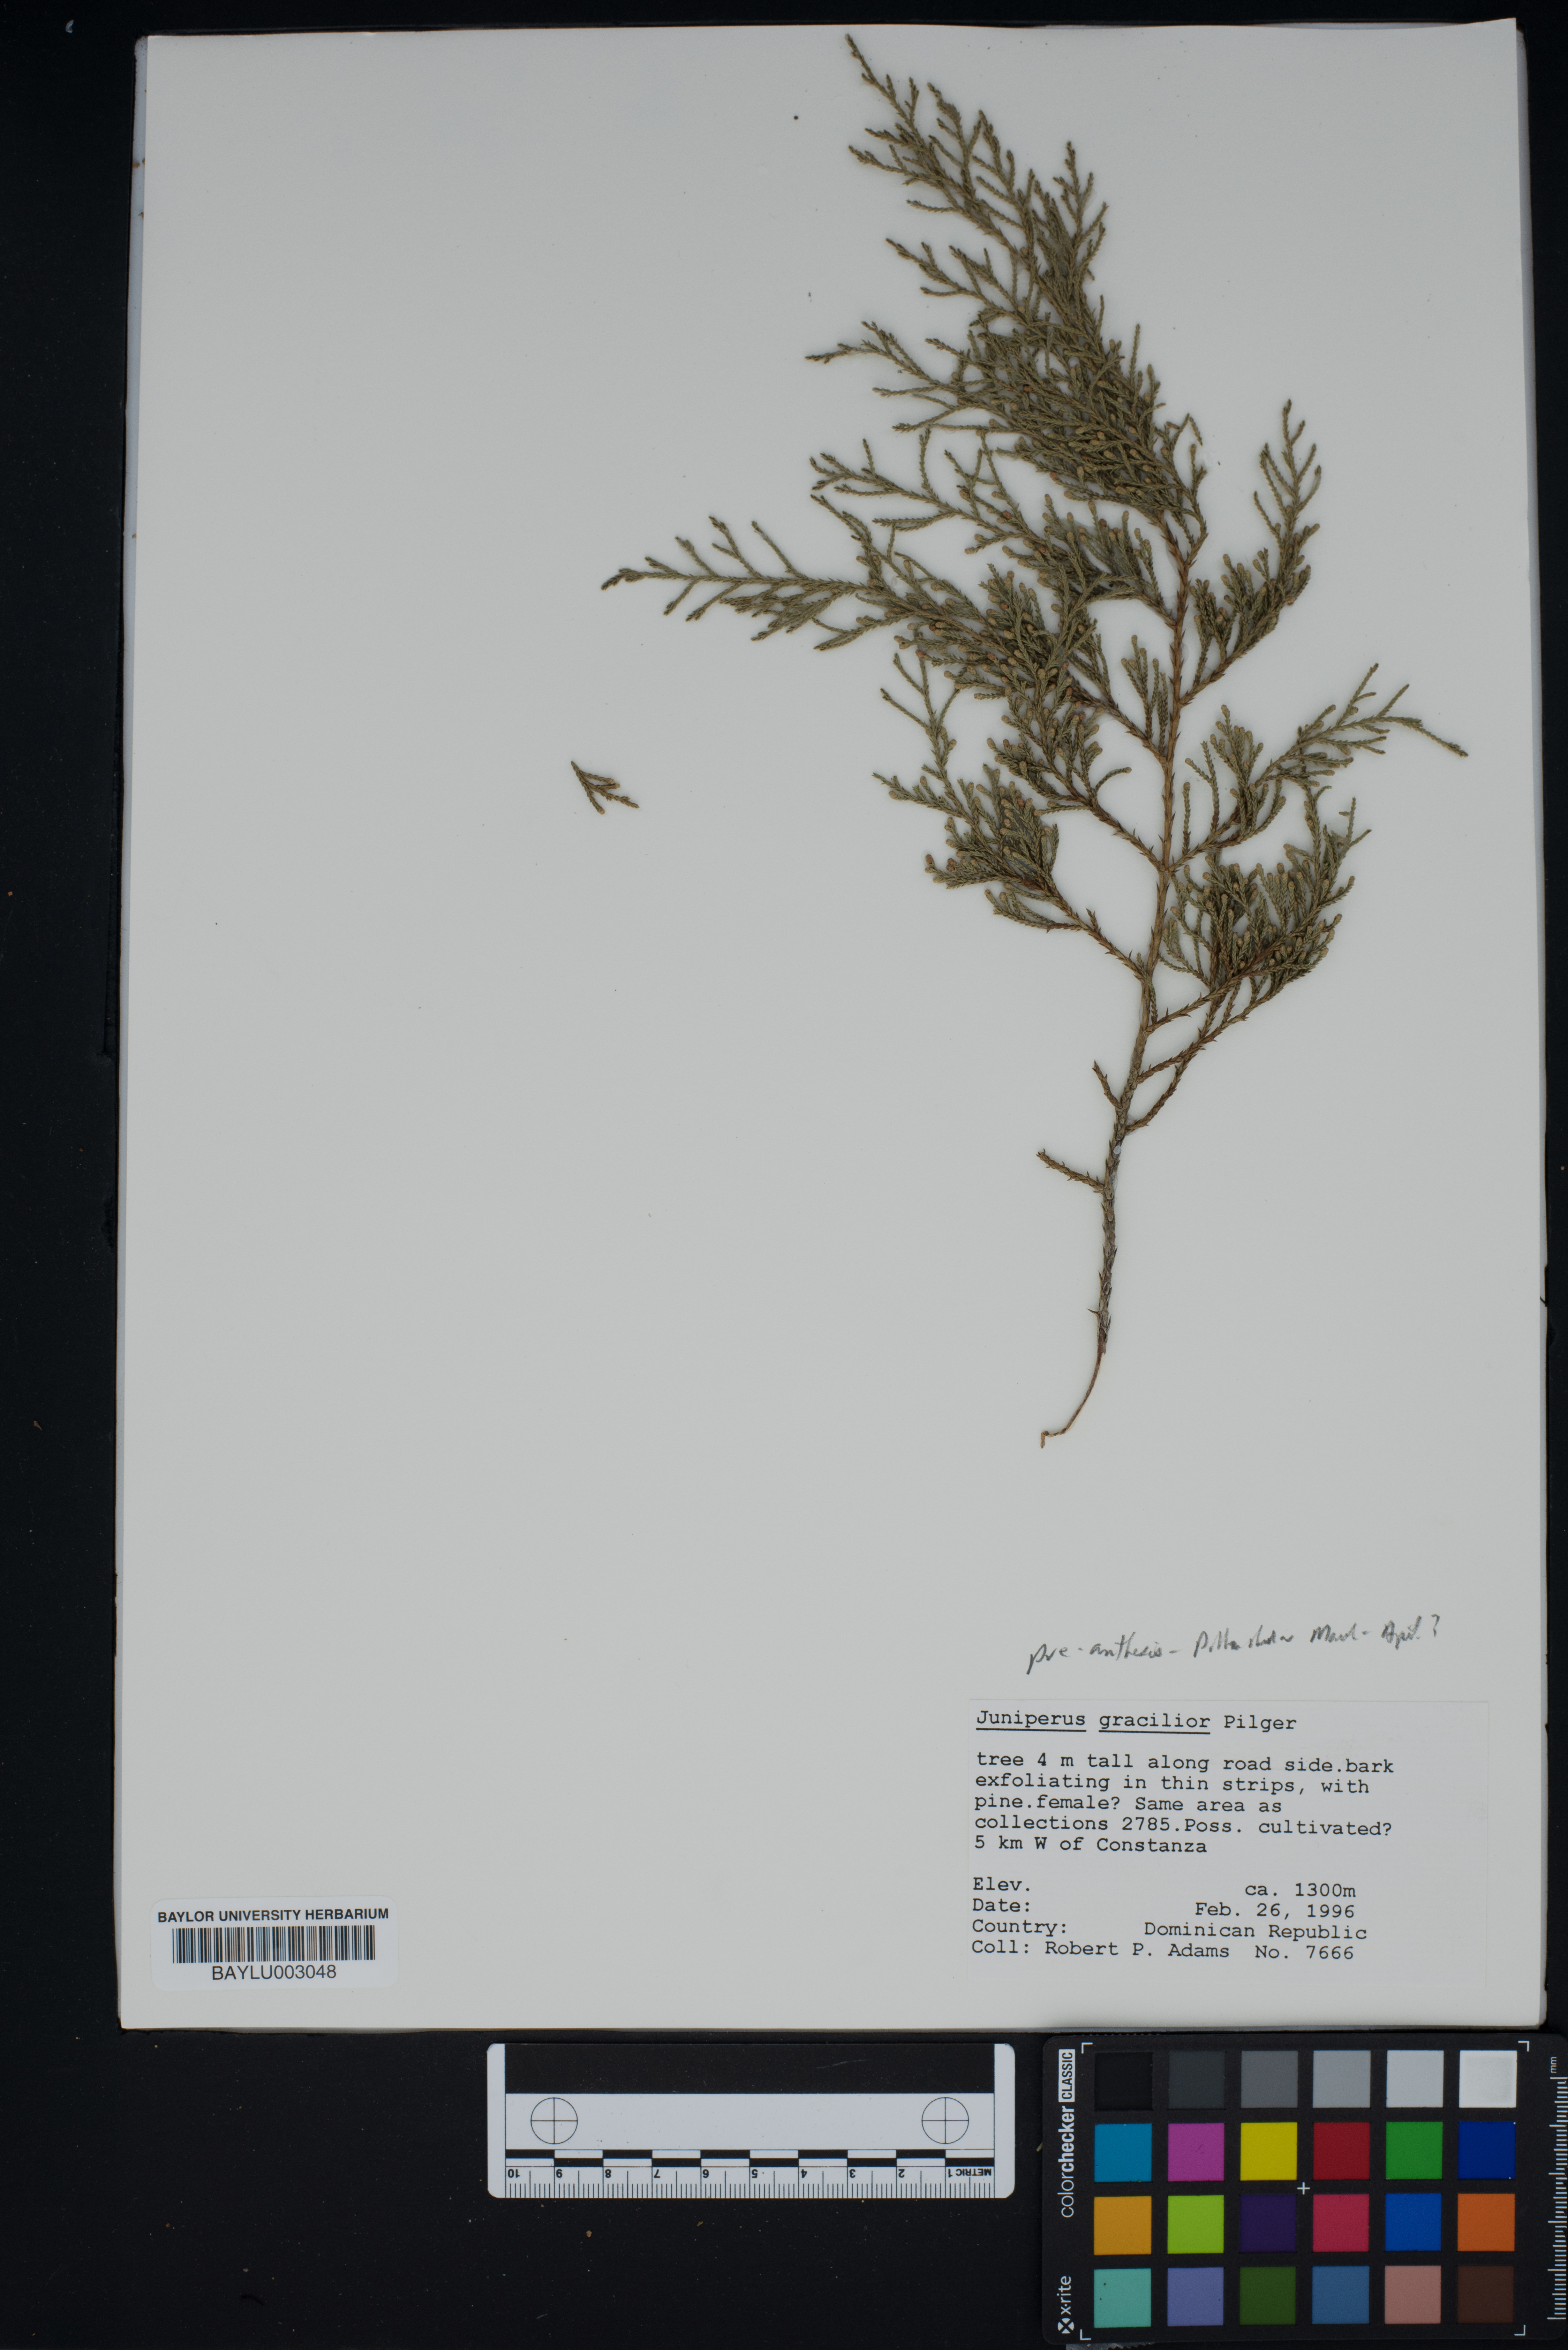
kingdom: Plantae
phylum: Tracheophyta
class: Pinopsida
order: Pinales
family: Cupressaceae
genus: Juniperus
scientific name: Juniperus gracilior
